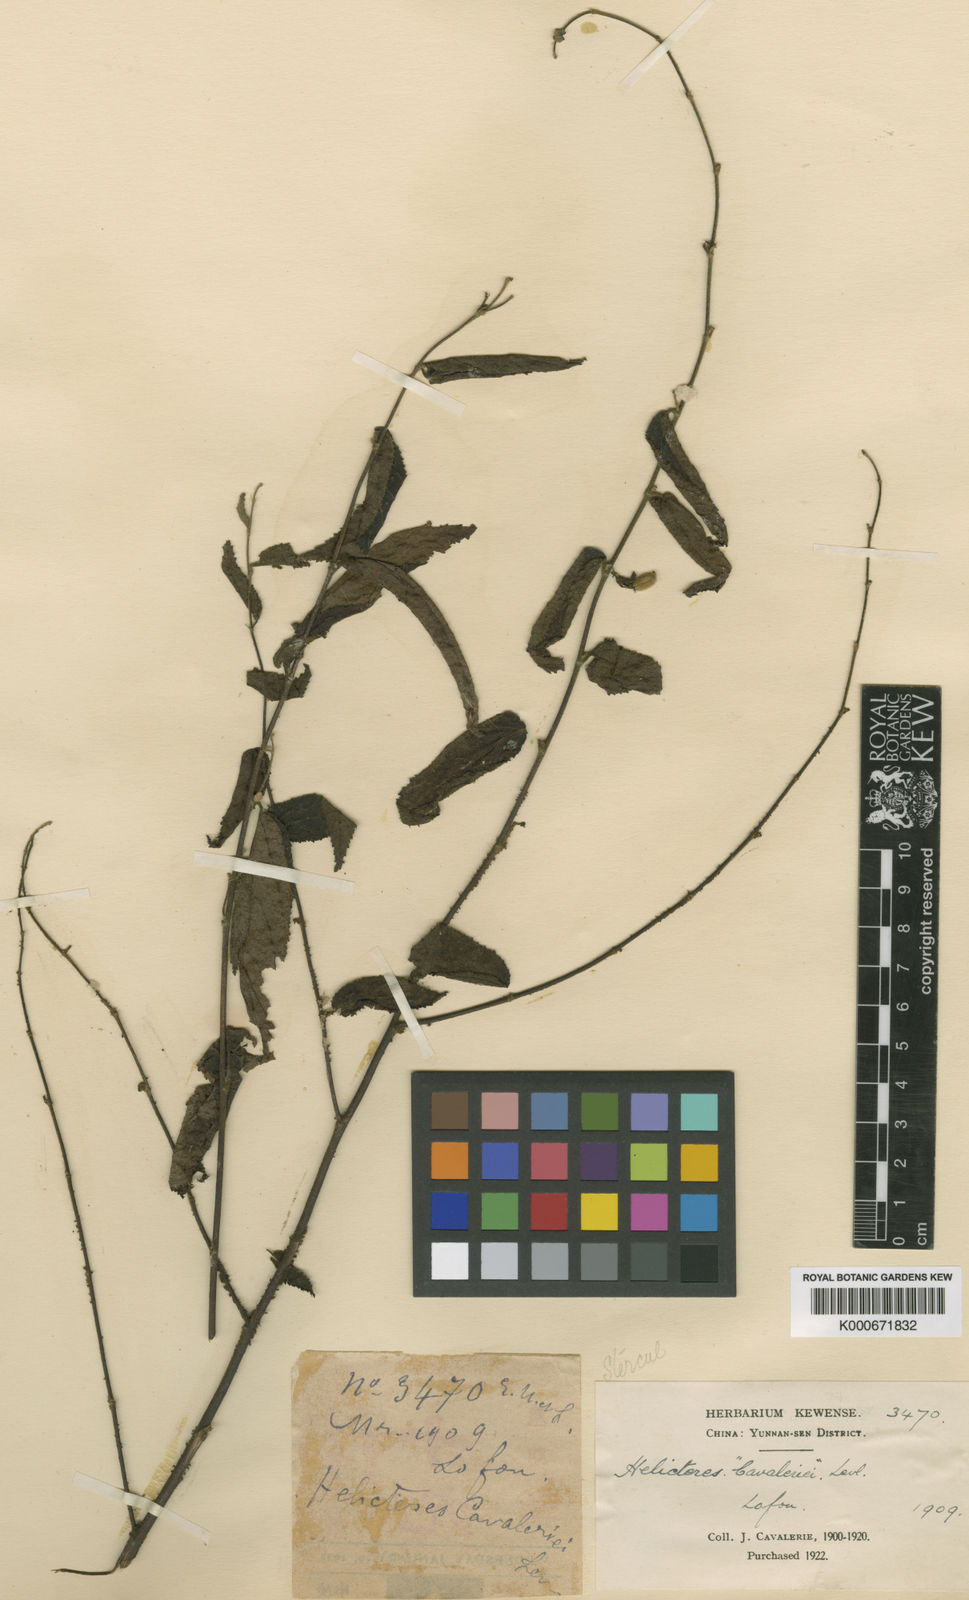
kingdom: Plantae
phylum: Tracheophyta
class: Magnoliopsida
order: Malvales
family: Malvaceae
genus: Helicteres
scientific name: Helicteres
